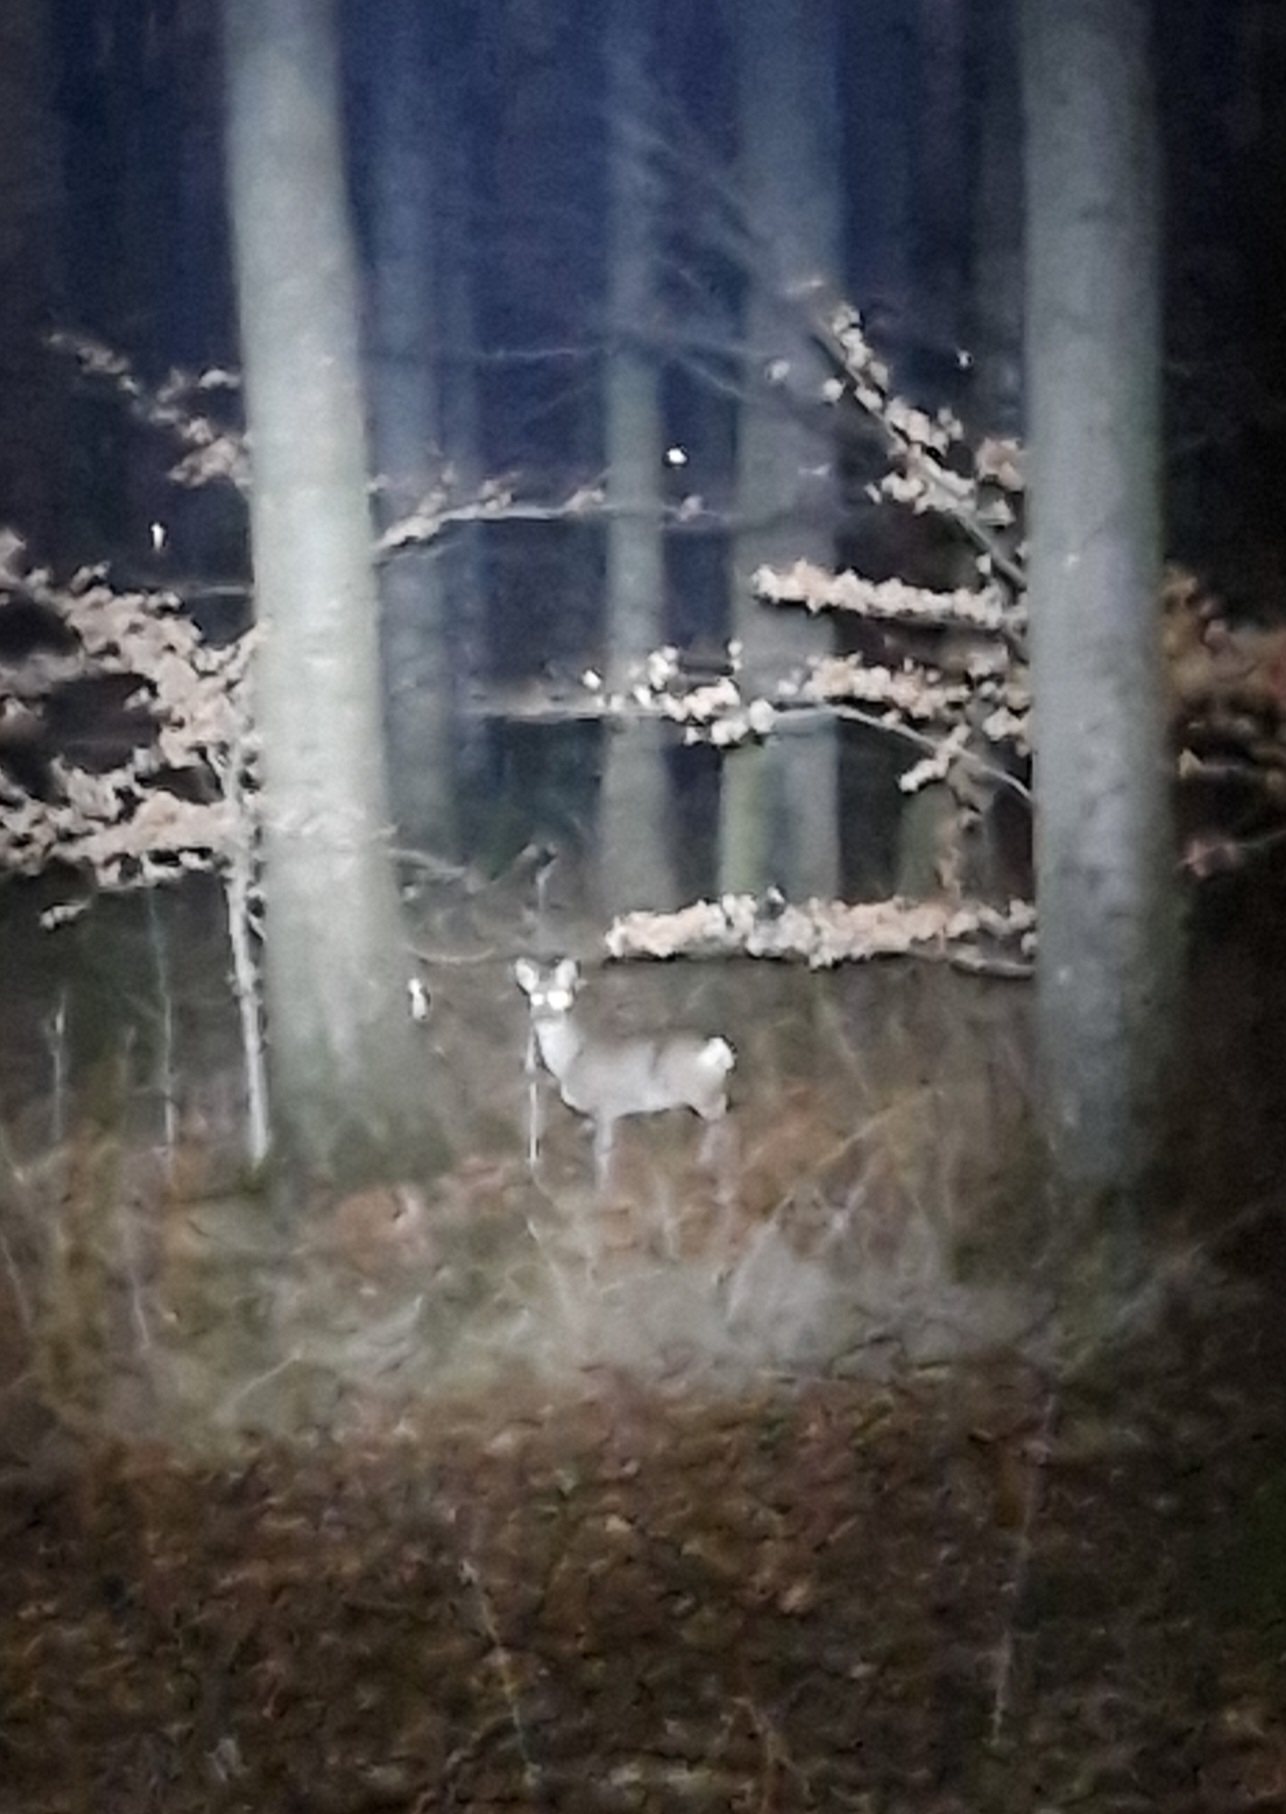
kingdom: Animalia
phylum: Chordata
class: Mammalia
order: Artiodactyla
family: Cervidae
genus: Capreolus
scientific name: Capreolus capreolus
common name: Rådyr
